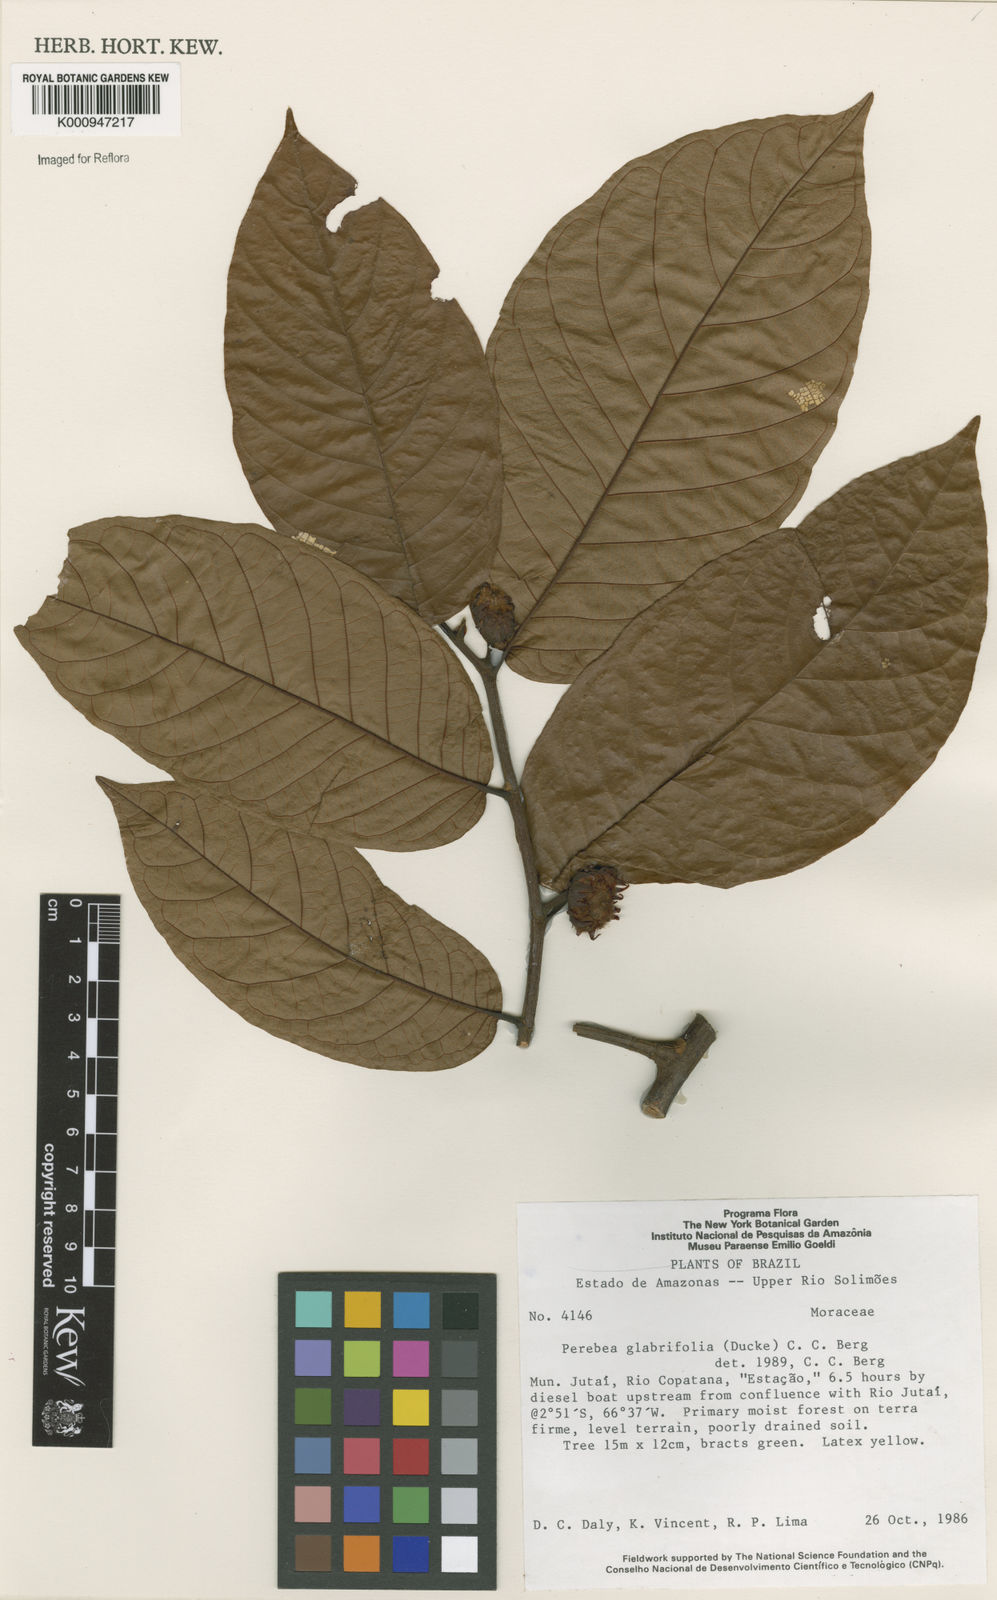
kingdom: Plantae
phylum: Tracheophyta
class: Magnoliopsida
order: Rosales
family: Moraceae
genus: Perebea
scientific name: Perebea rubra
